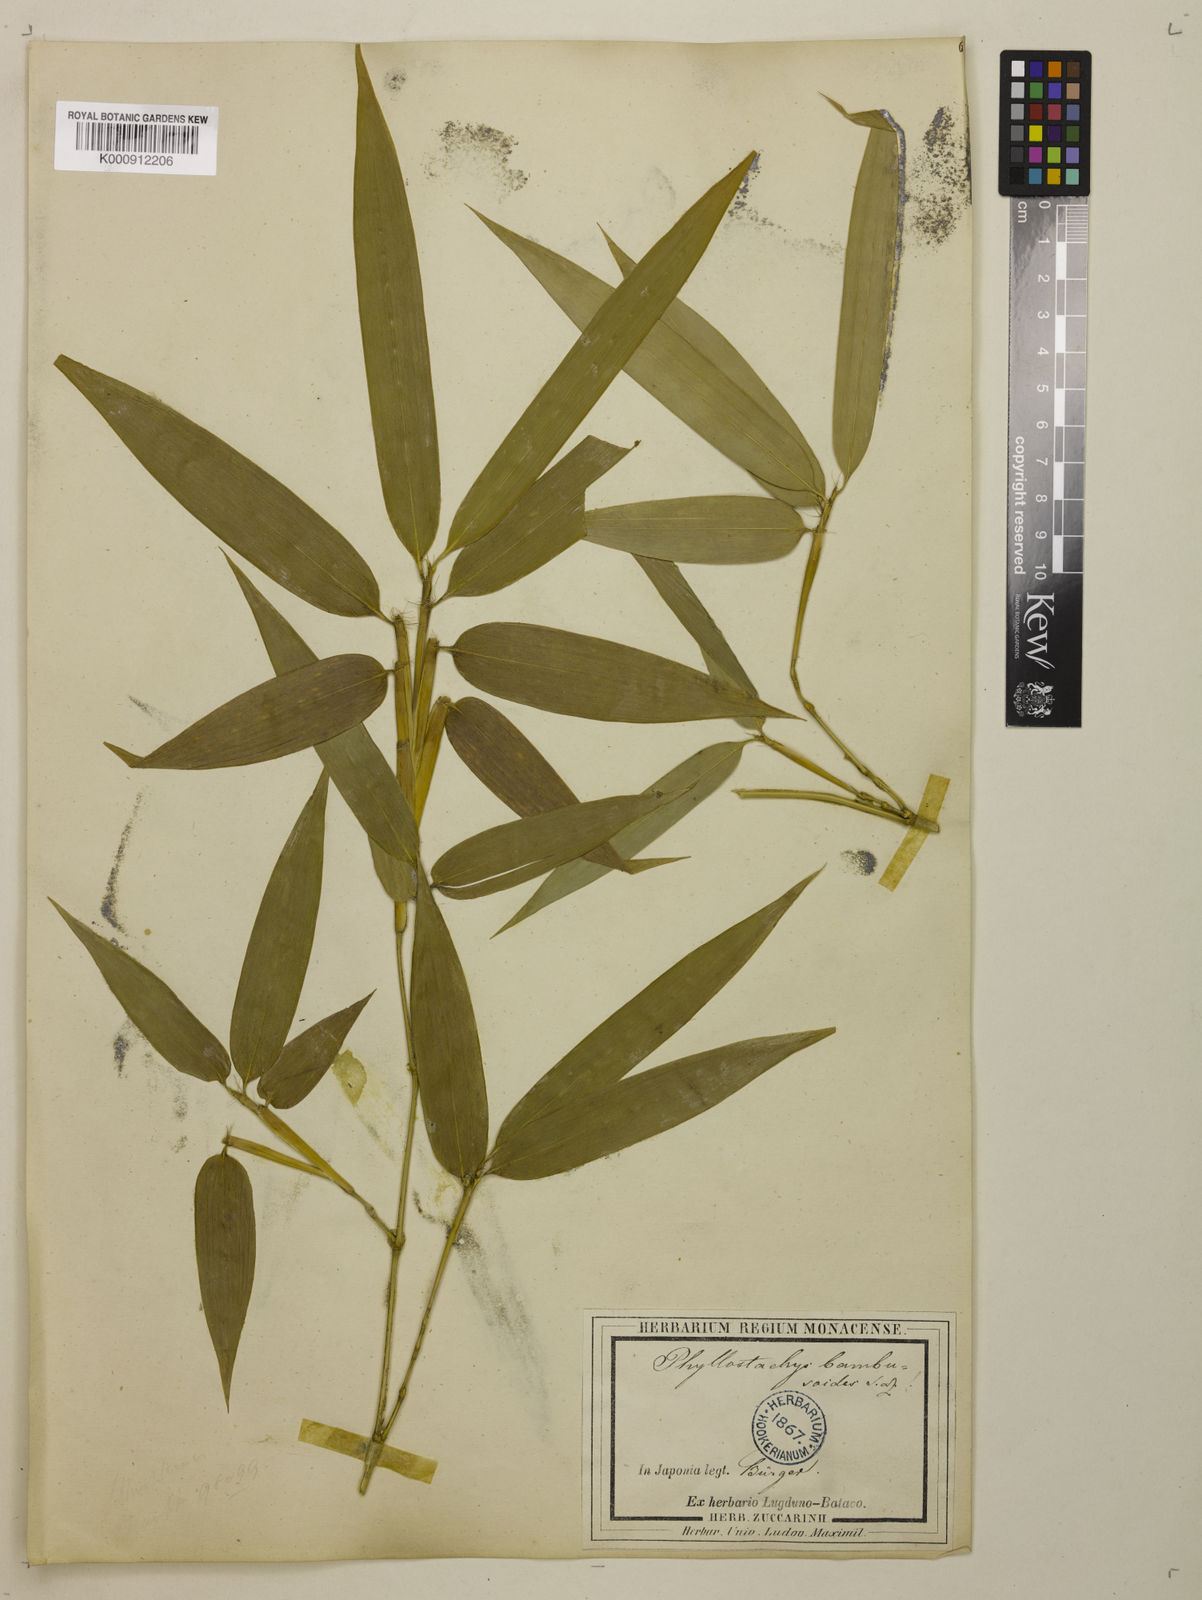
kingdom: Plantae
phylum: Tracheophyta
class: Liliopsida
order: Poales
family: Poaceae
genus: Phyllostachys
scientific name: Phyllostachys reticulata
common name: Bamboo
